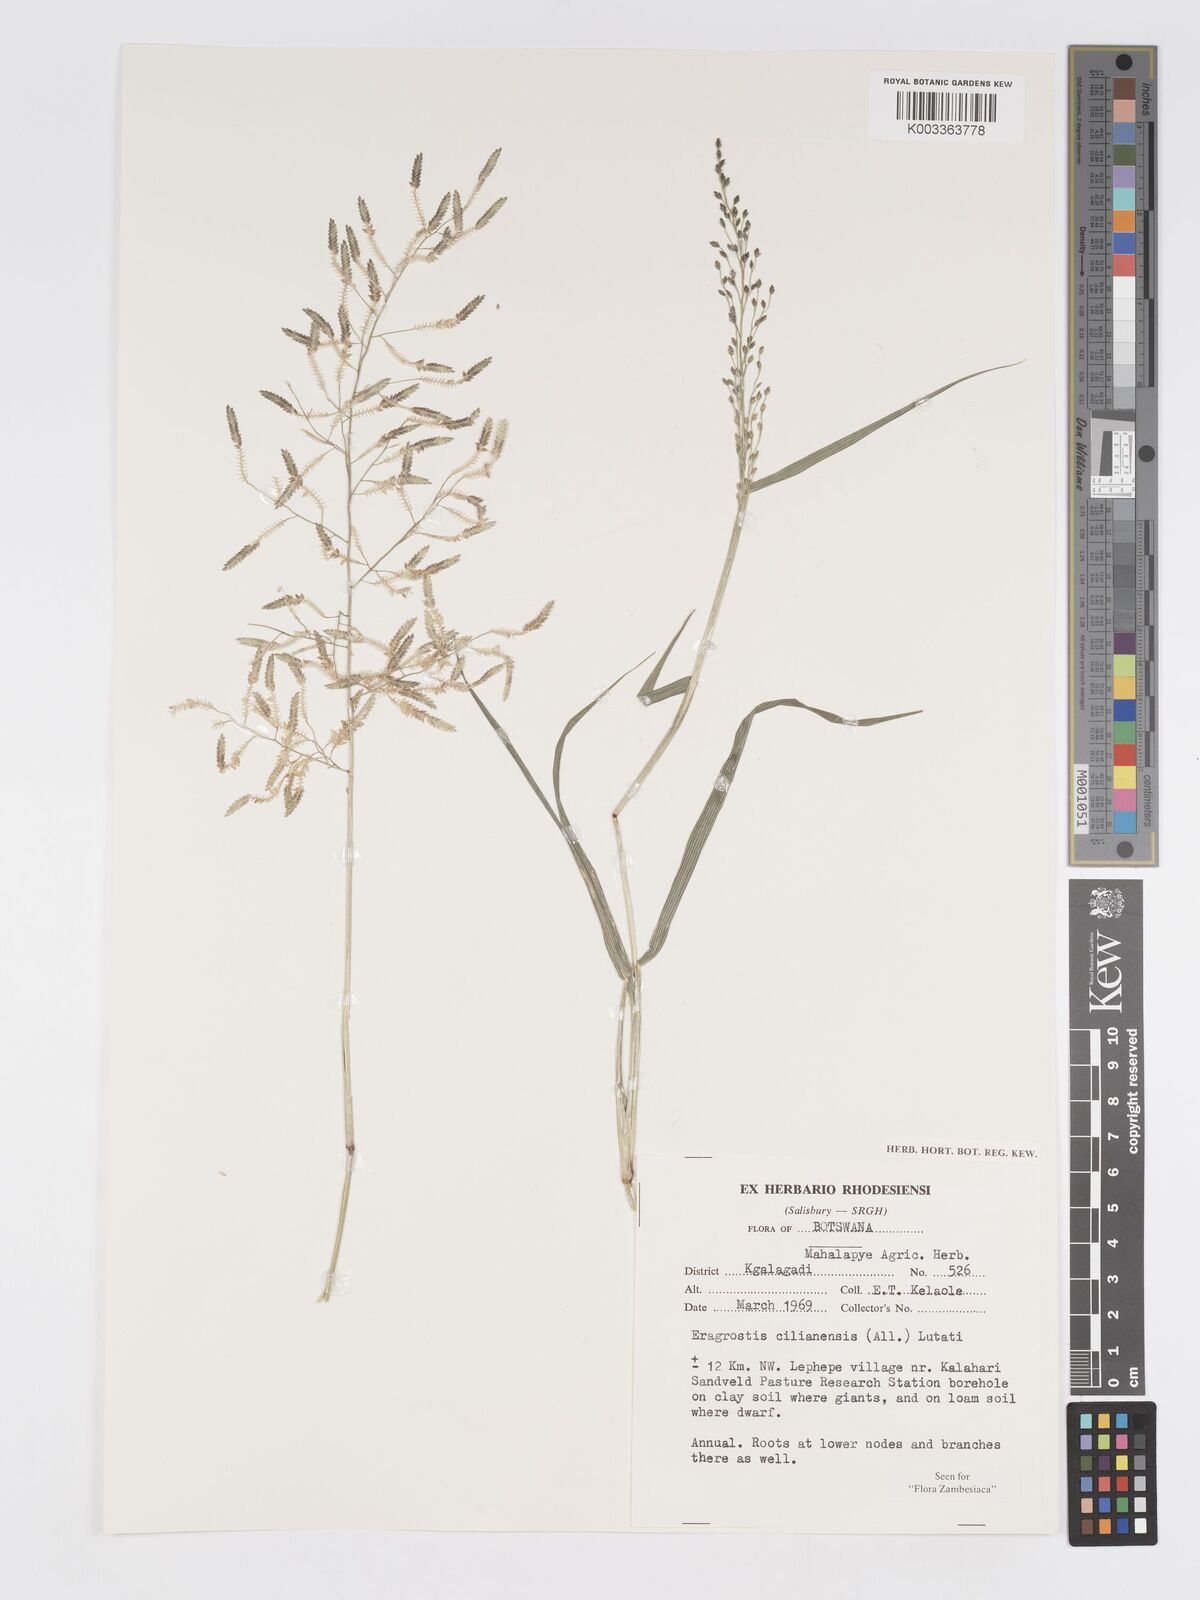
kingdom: Plantae
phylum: Tracheophyta
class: Liliopsida
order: Poales
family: Poaceae
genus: Eragrostis
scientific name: Eragrostis cilianensis
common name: Stinkgrass
